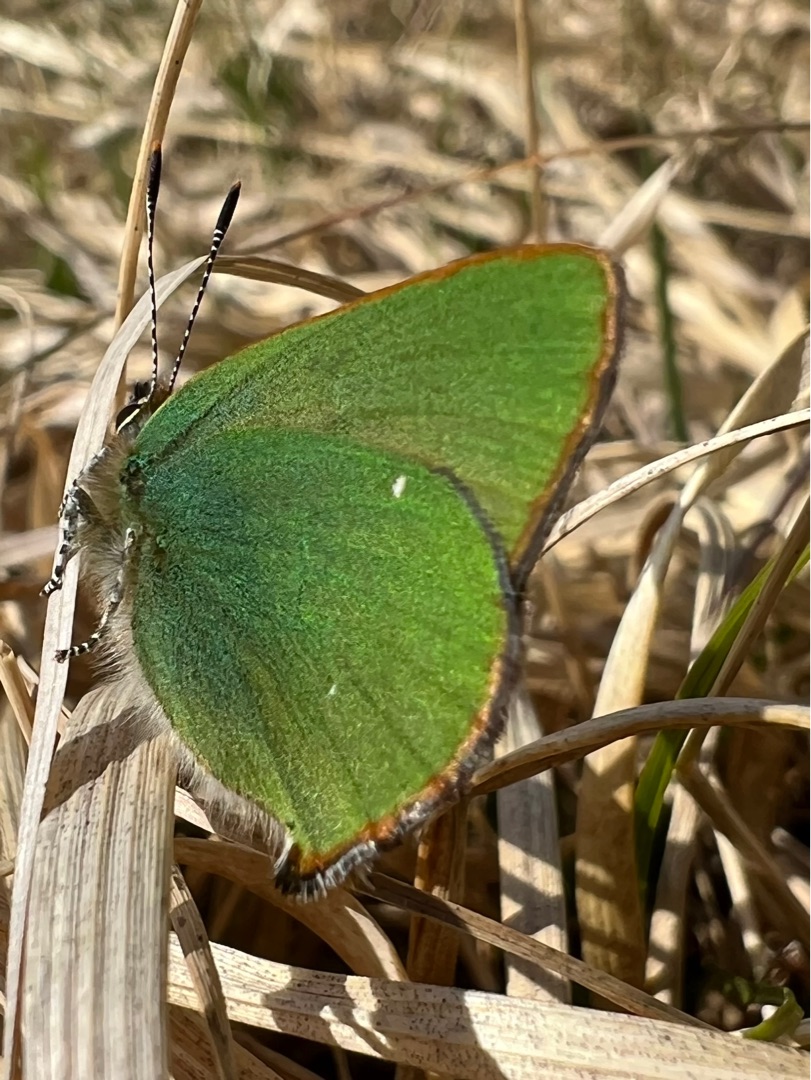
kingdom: Animalia
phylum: Arthropoda
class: Insecta
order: Lepidoptera
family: Lycaenidae
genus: Callophrys
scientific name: Callophrys rubi
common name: Grøn busksommerfugl
